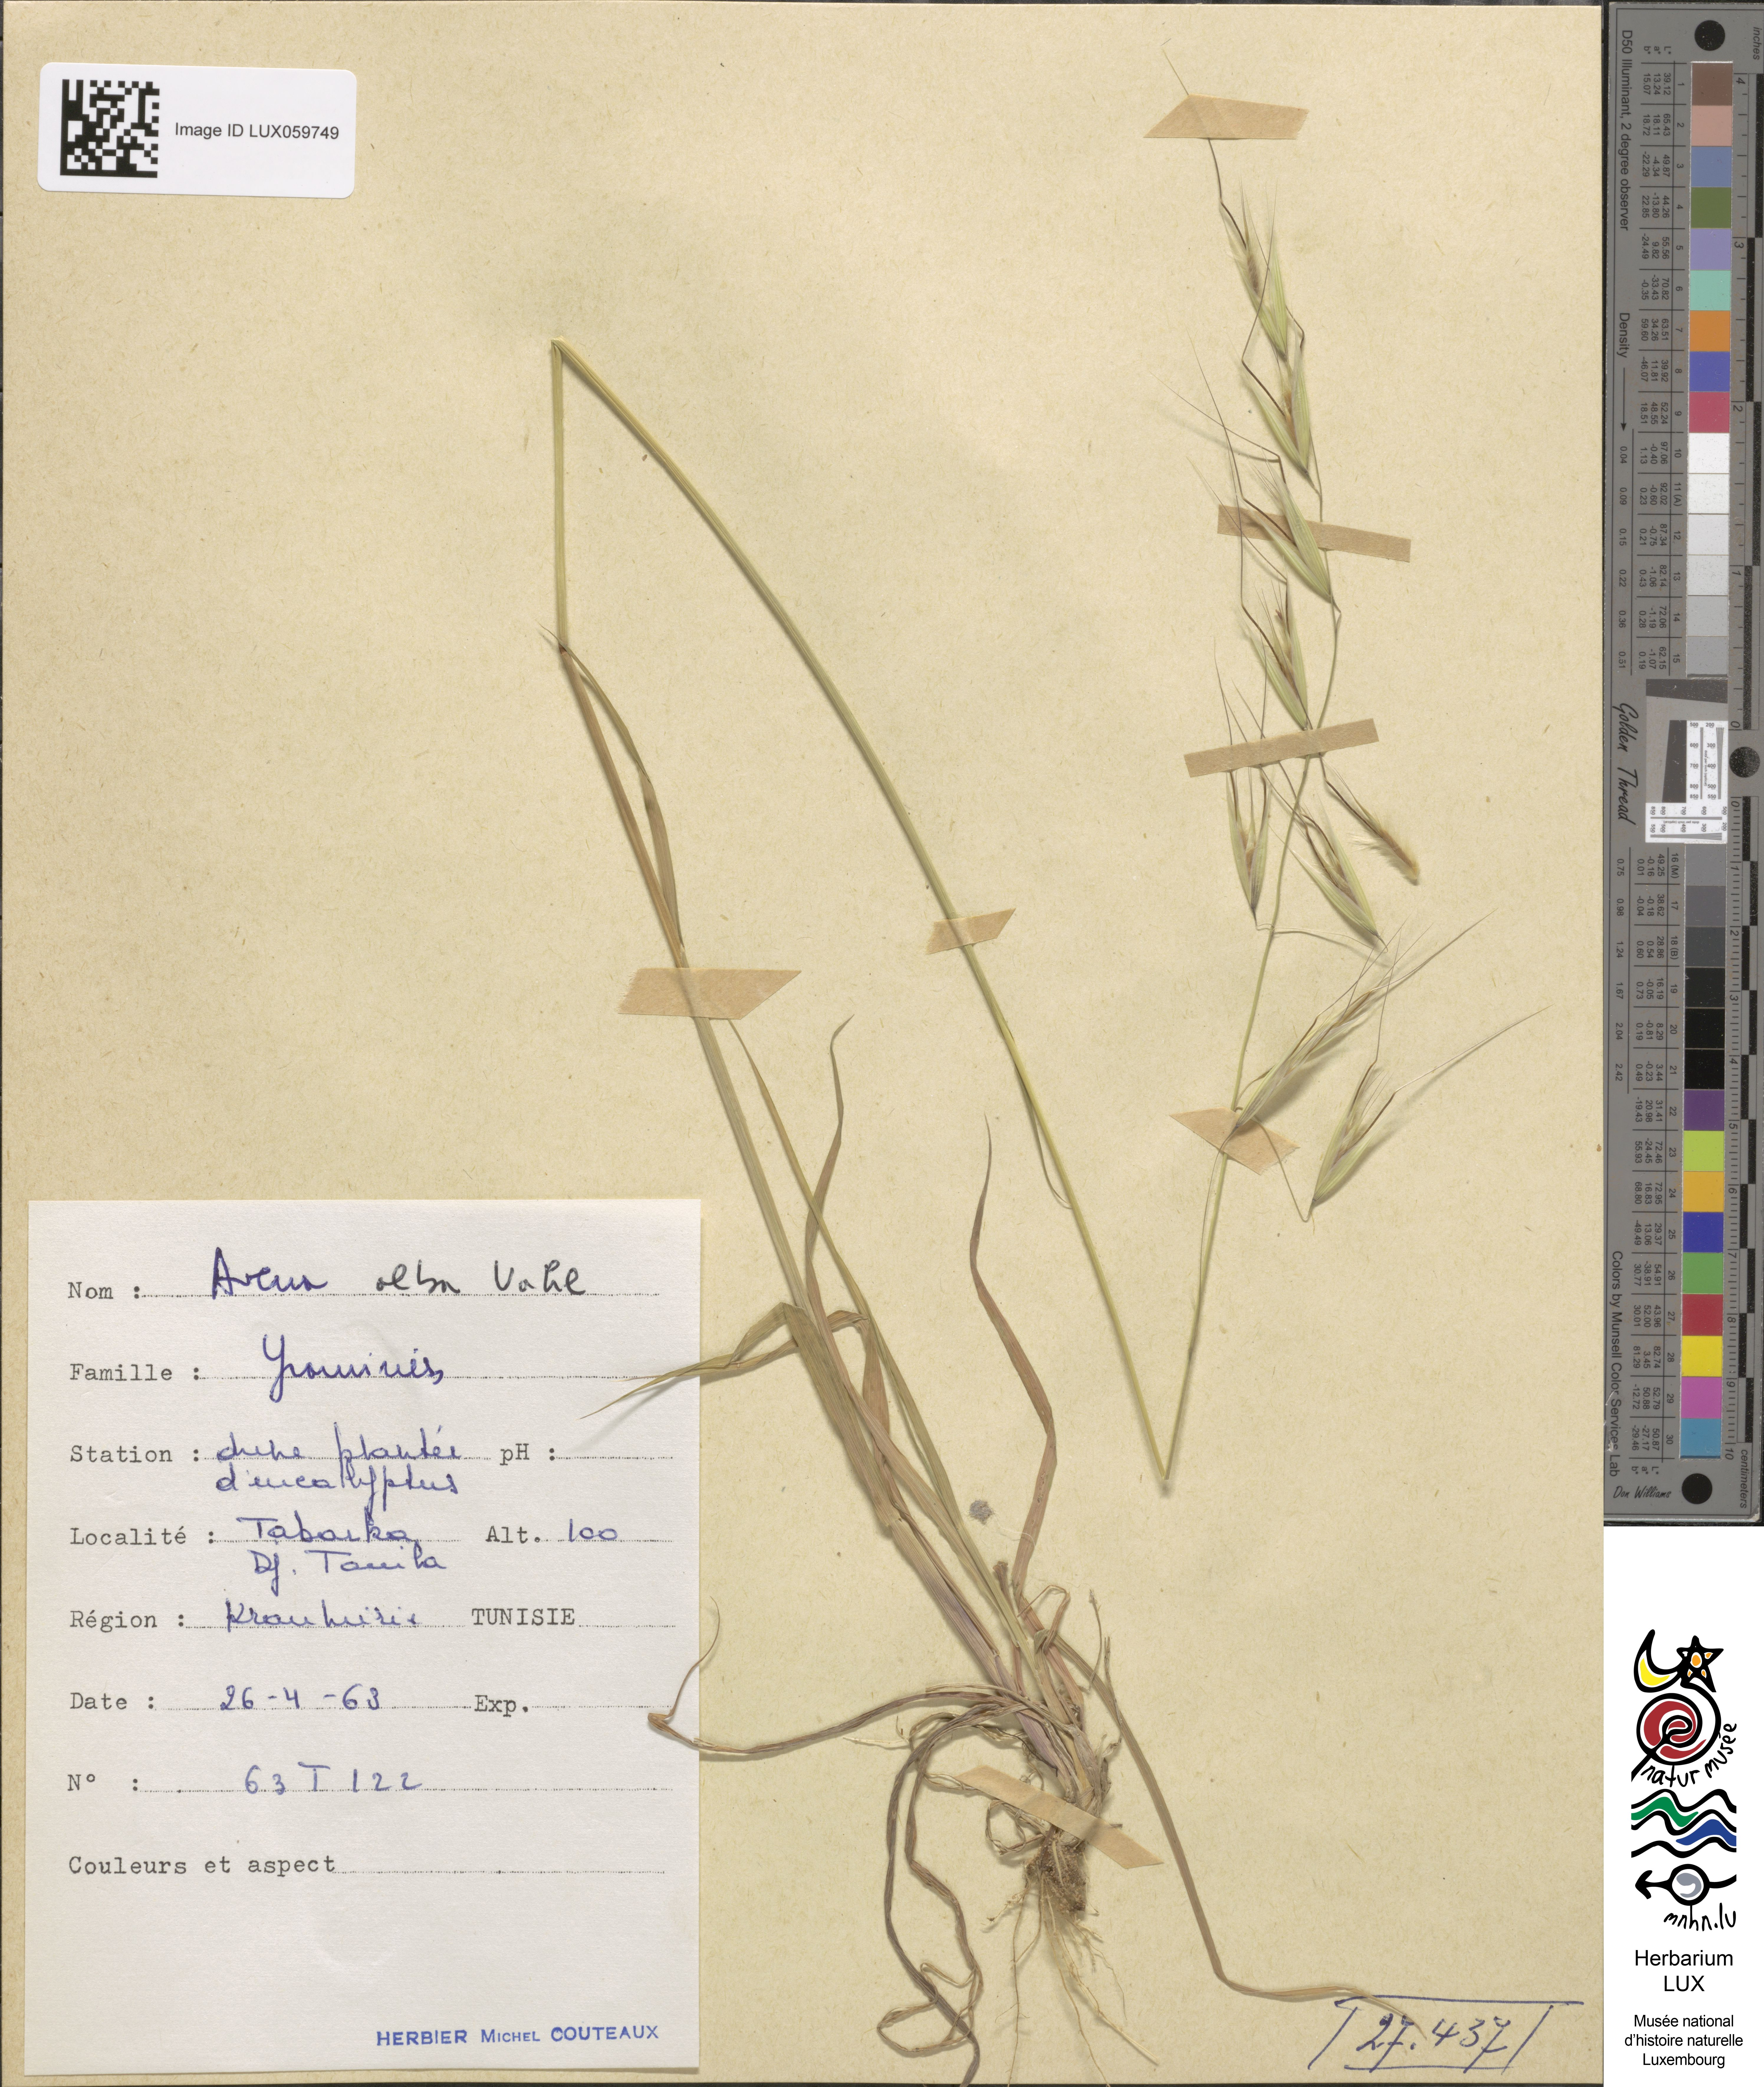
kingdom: Plantae
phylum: Tracheophyta
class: Liliopsida
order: Poales
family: Poaceae
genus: Arrhenatherum
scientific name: Arrhenatherum album
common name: Tall oat grass
